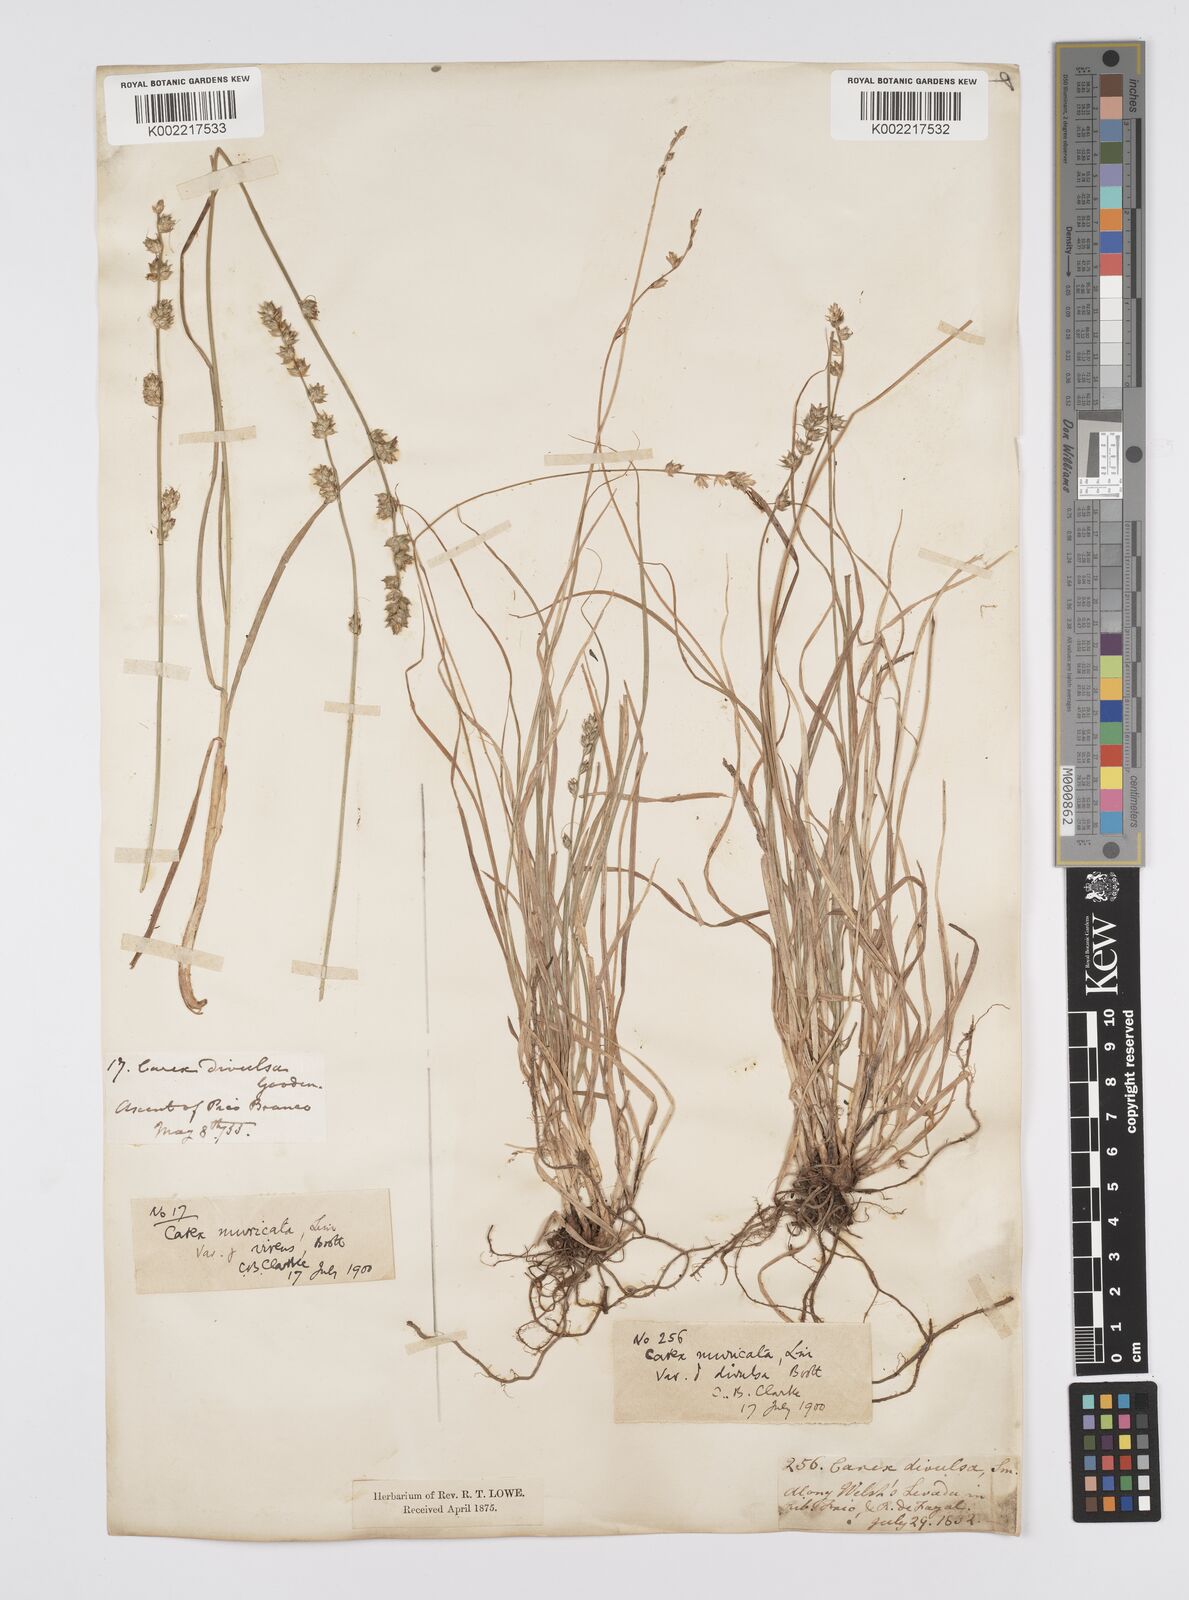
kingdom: Plantae
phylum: Tracheophyta
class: Liliopsida
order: Poales
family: Cyperaceae
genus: Carex
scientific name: Carex divulsa
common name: Grassland sedge
